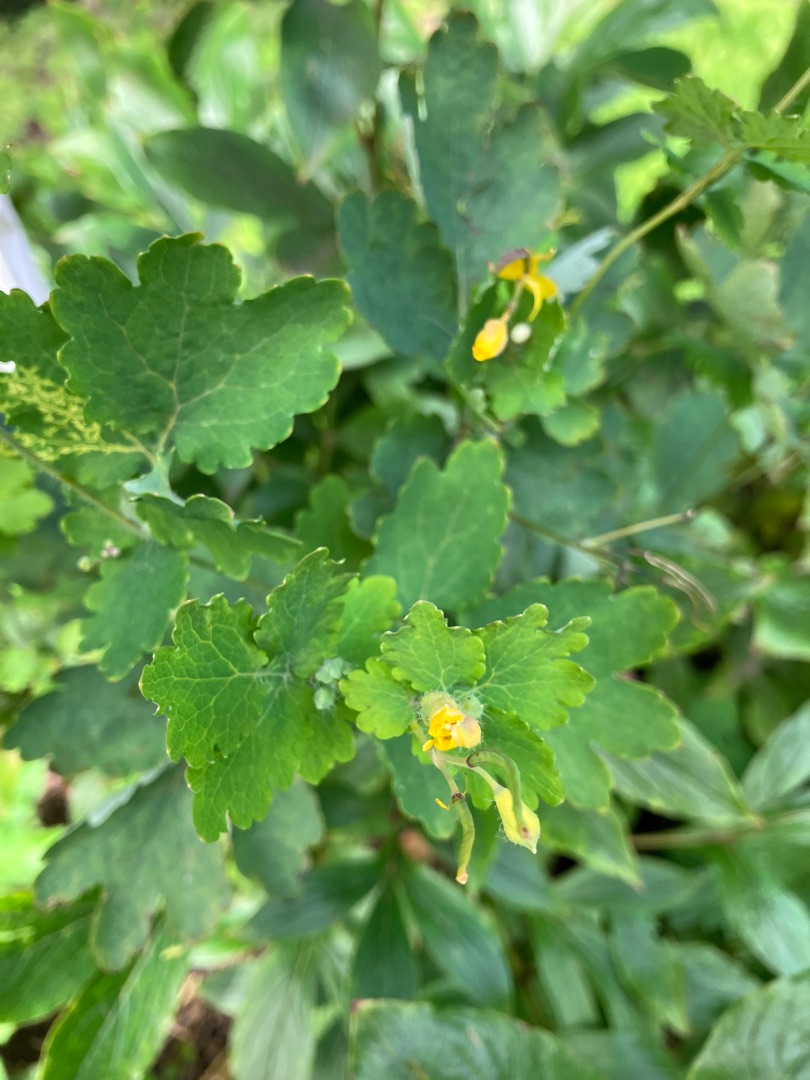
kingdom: Plantae
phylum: Tracheophyta
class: Magnoliopsida
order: Ranunculales
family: Papaveraceae
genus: Chelidonium
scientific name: Chelidonium majus
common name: Svaleurt
